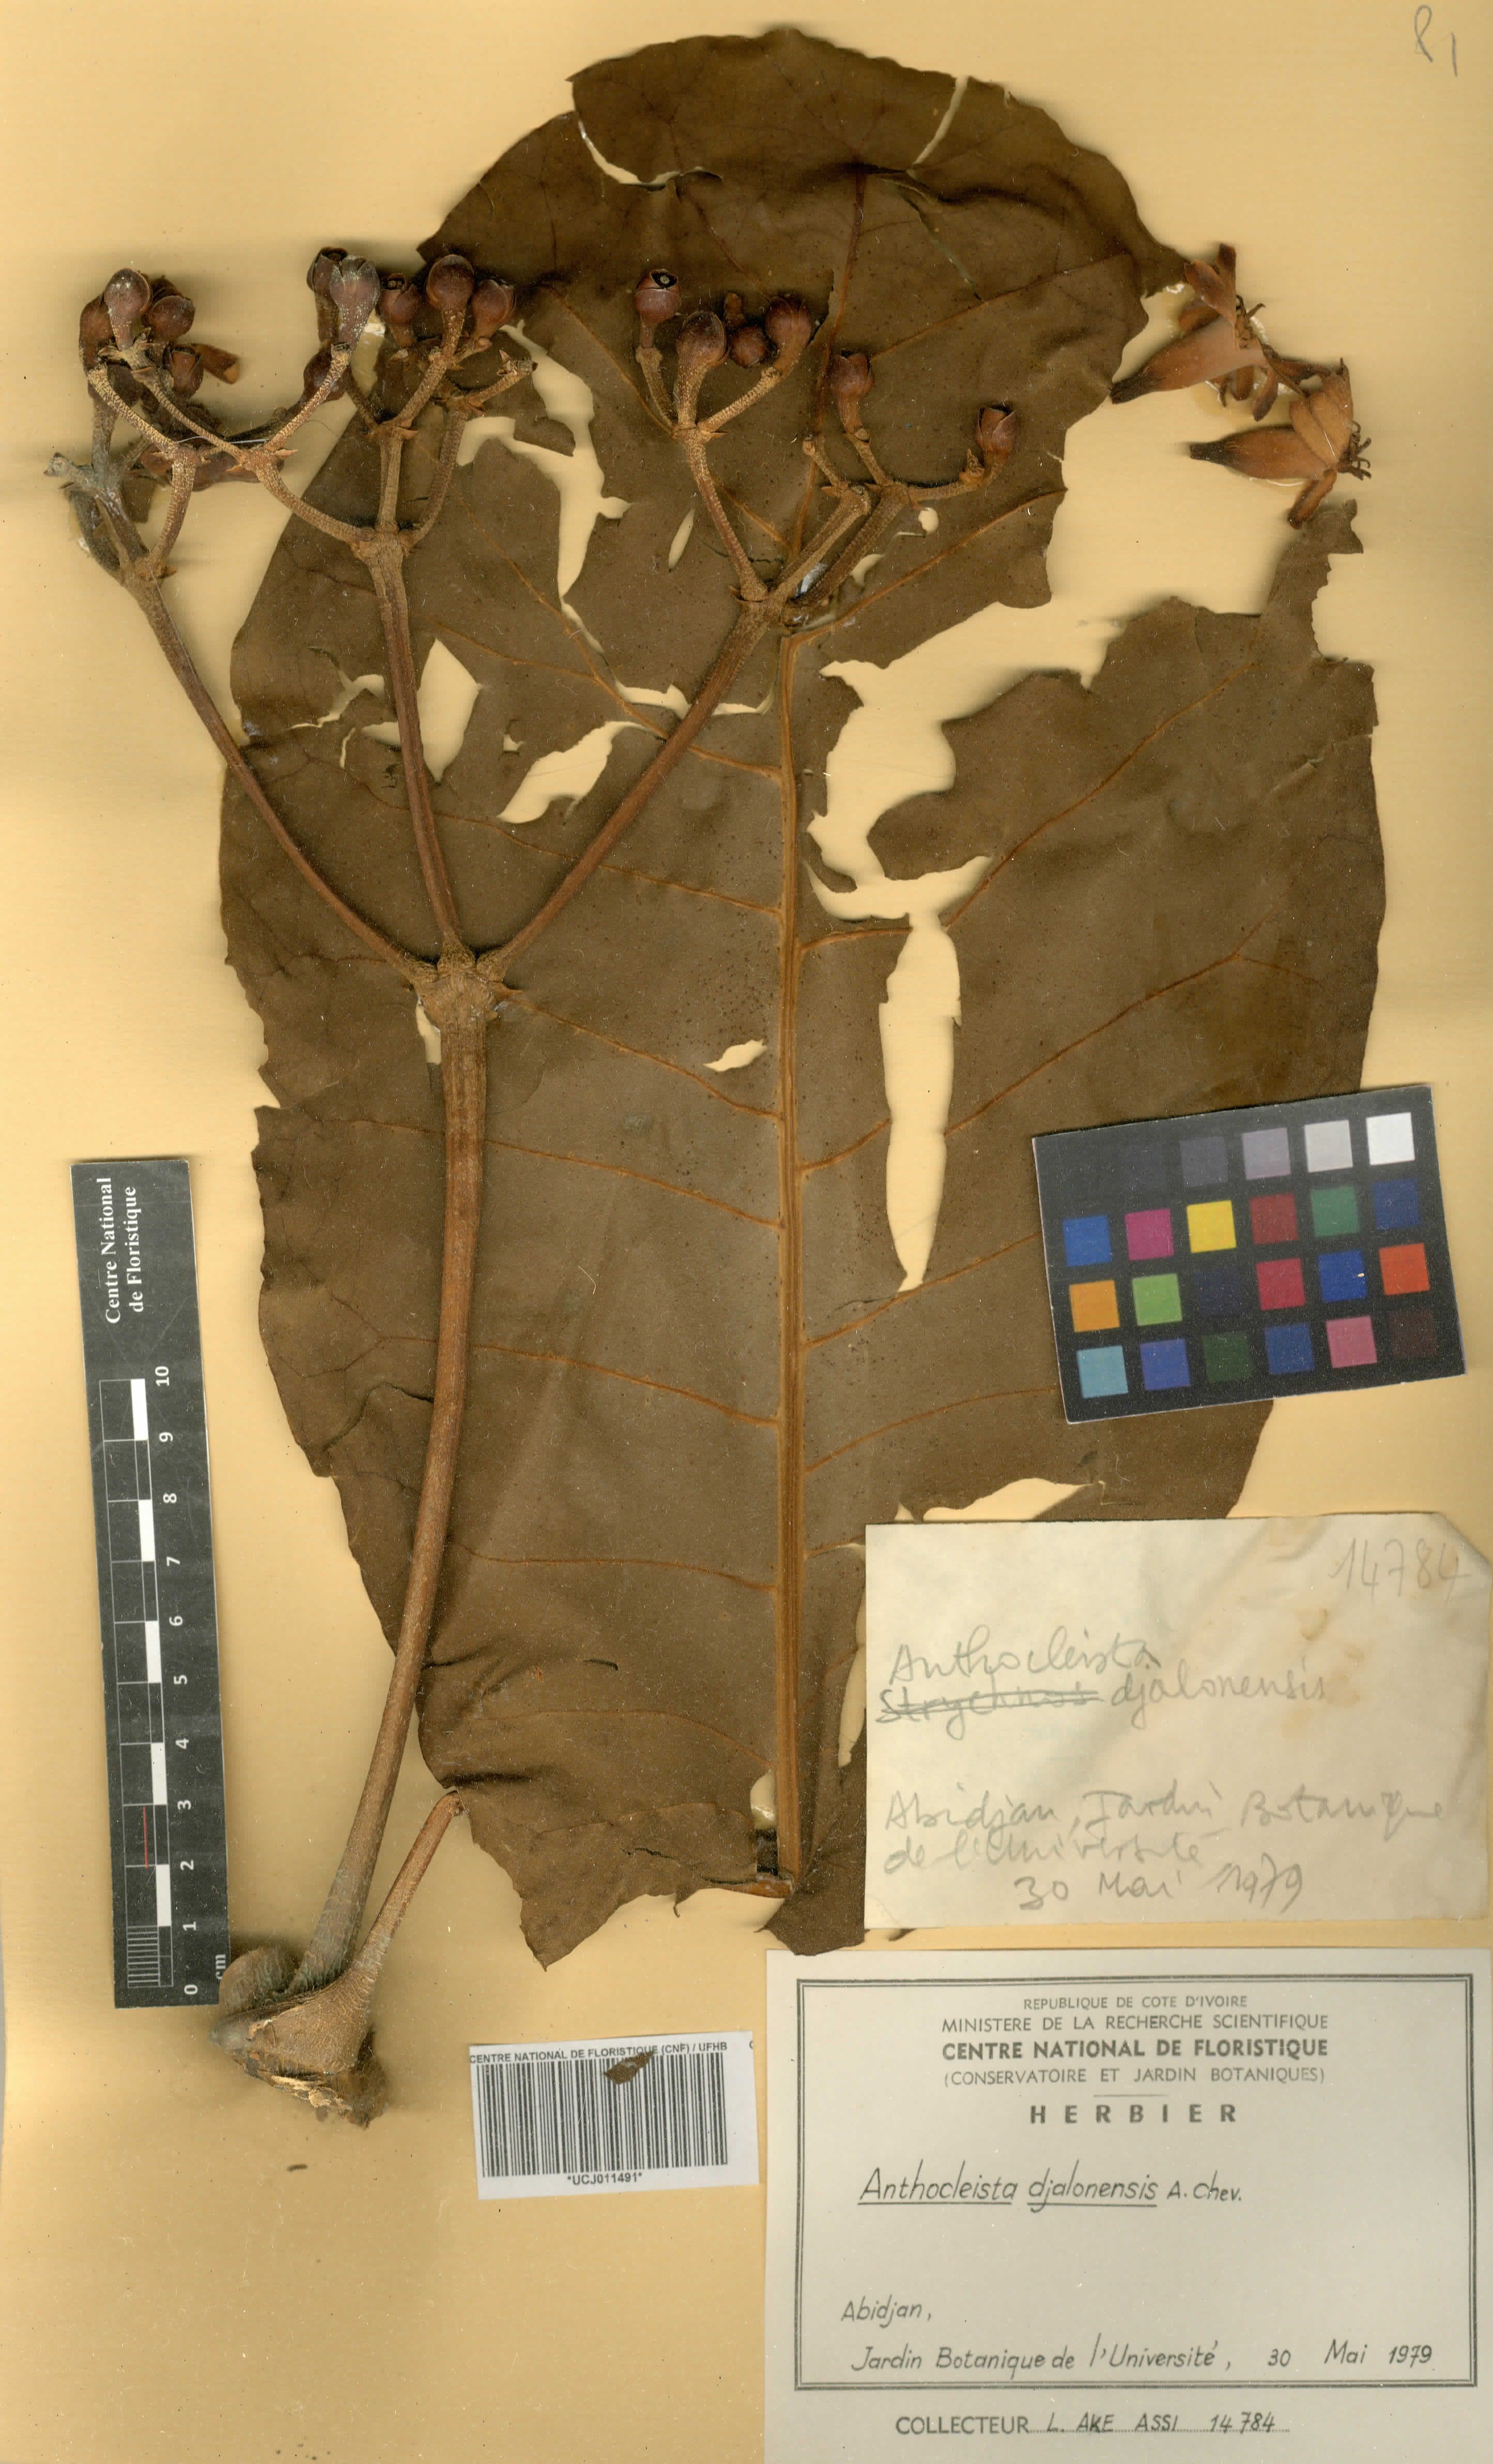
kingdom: Plantae
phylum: Tracheophyta
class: Magnoliopsida
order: Gentianales
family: Gentianaceae
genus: Anthocleista
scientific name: Anthocleista djalonensis
